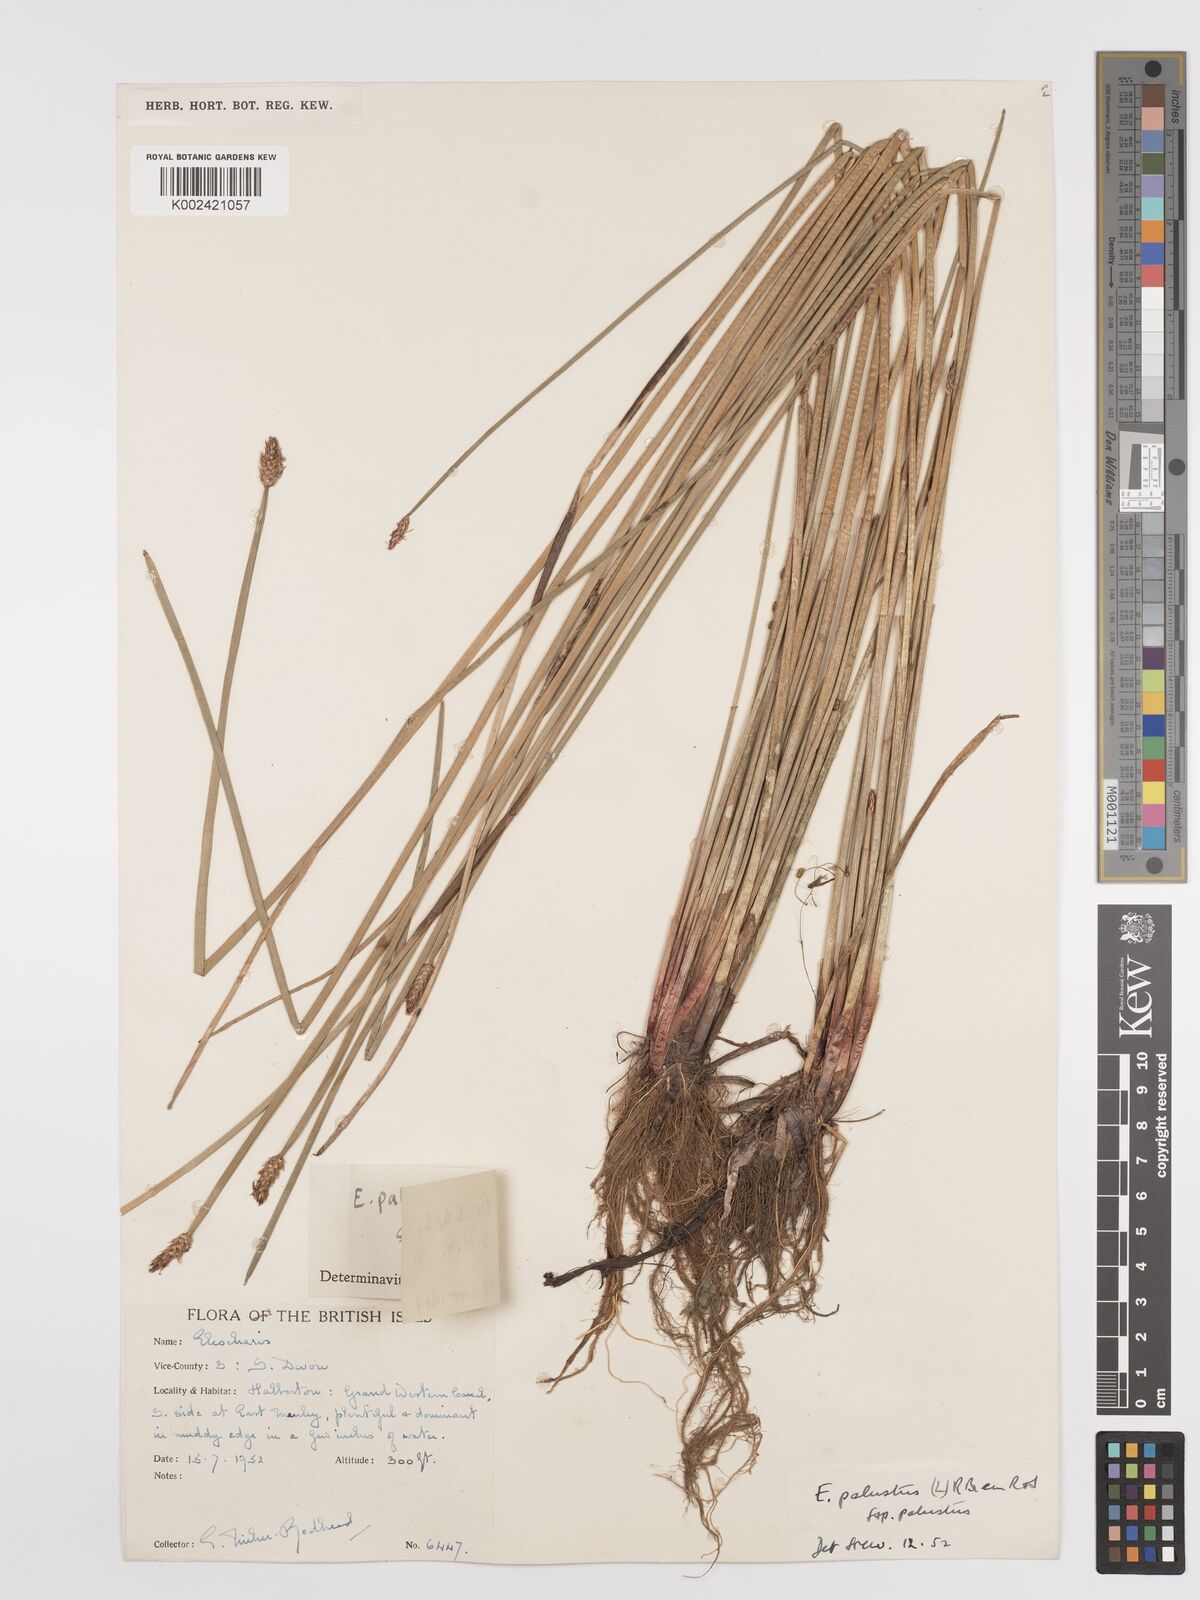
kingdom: Plantae
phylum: Tracheophyta
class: Liliopsida
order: Poales
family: Cyperaceae
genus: Eleocharis
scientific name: Eleocharis palustris
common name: Common spike-rush
